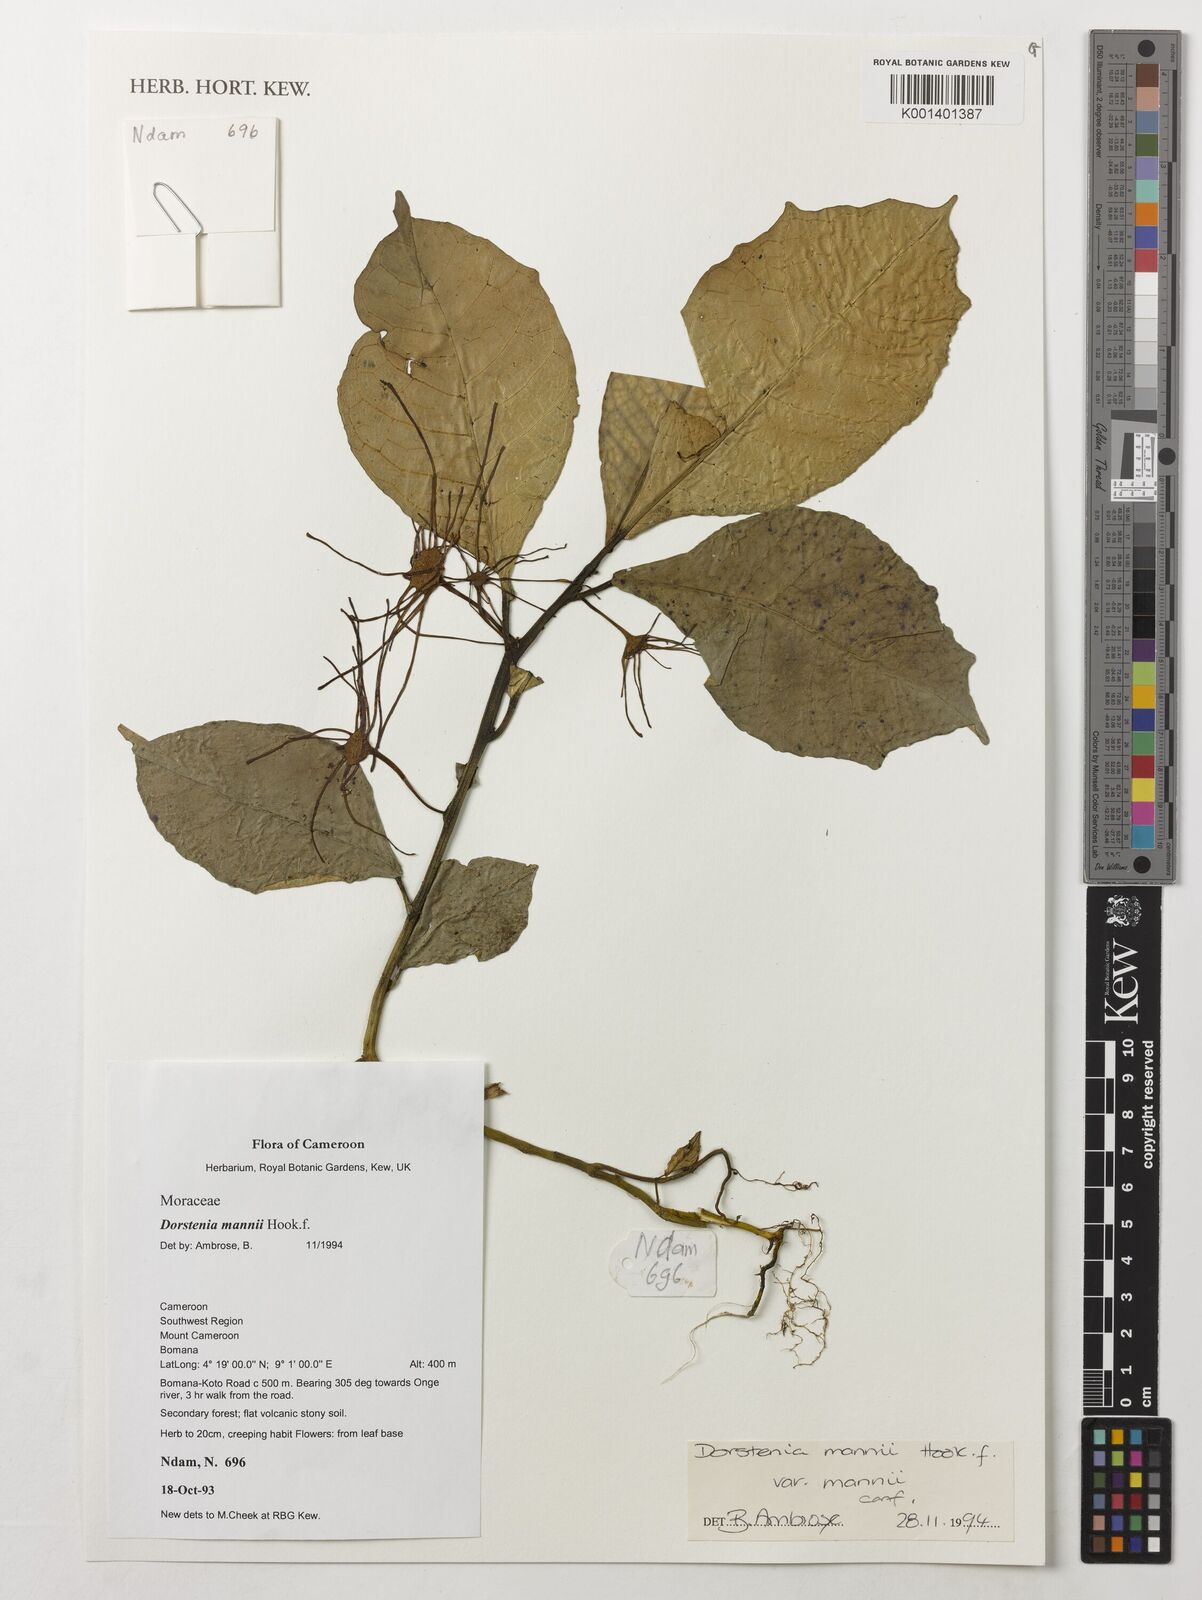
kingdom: Plantae
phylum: Tracheophyta
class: Magnoliopsida
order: Rosales
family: Moraceae
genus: Dorstenia
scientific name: Dorstenia mannii
